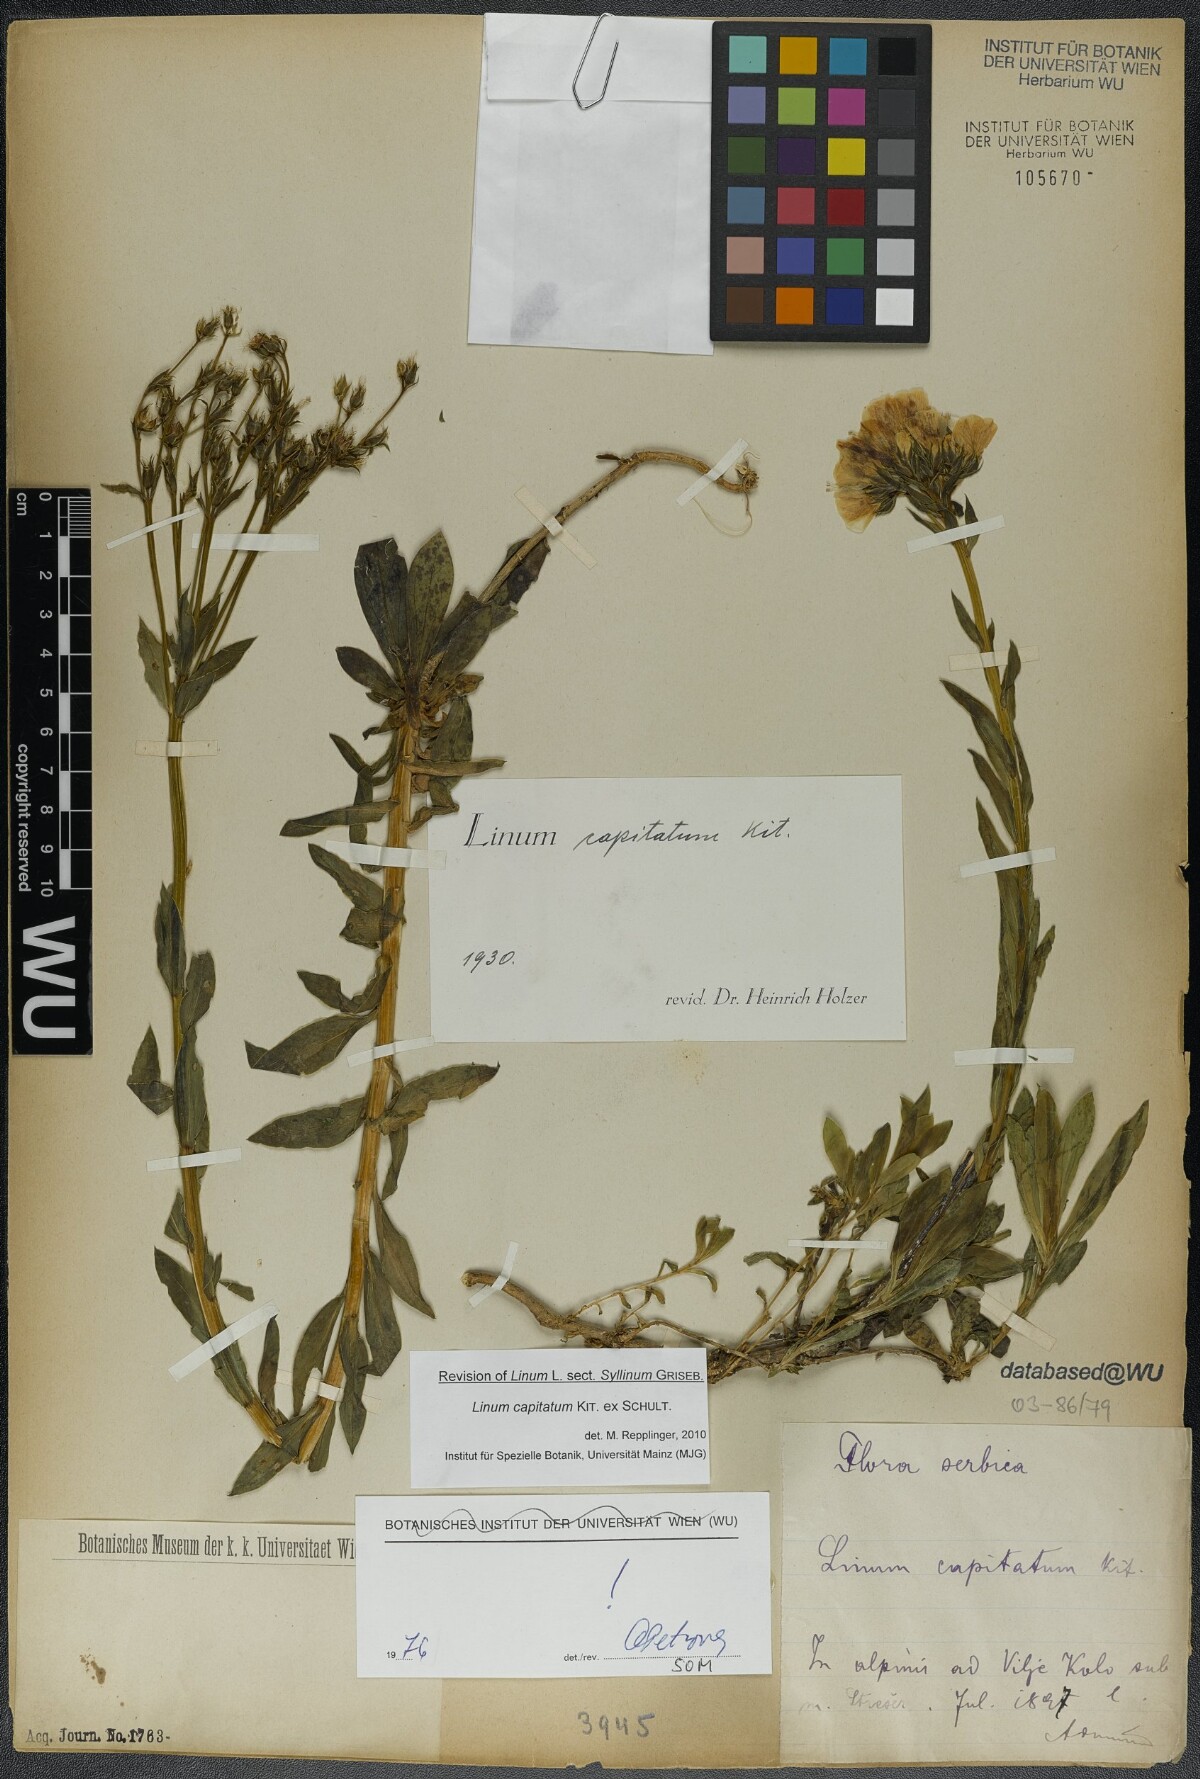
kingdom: Plantae
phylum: Tracheophyta
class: Magnoliopsida
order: Malpighiales
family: Linaceae
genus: Linum
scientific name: Linum capitatum
